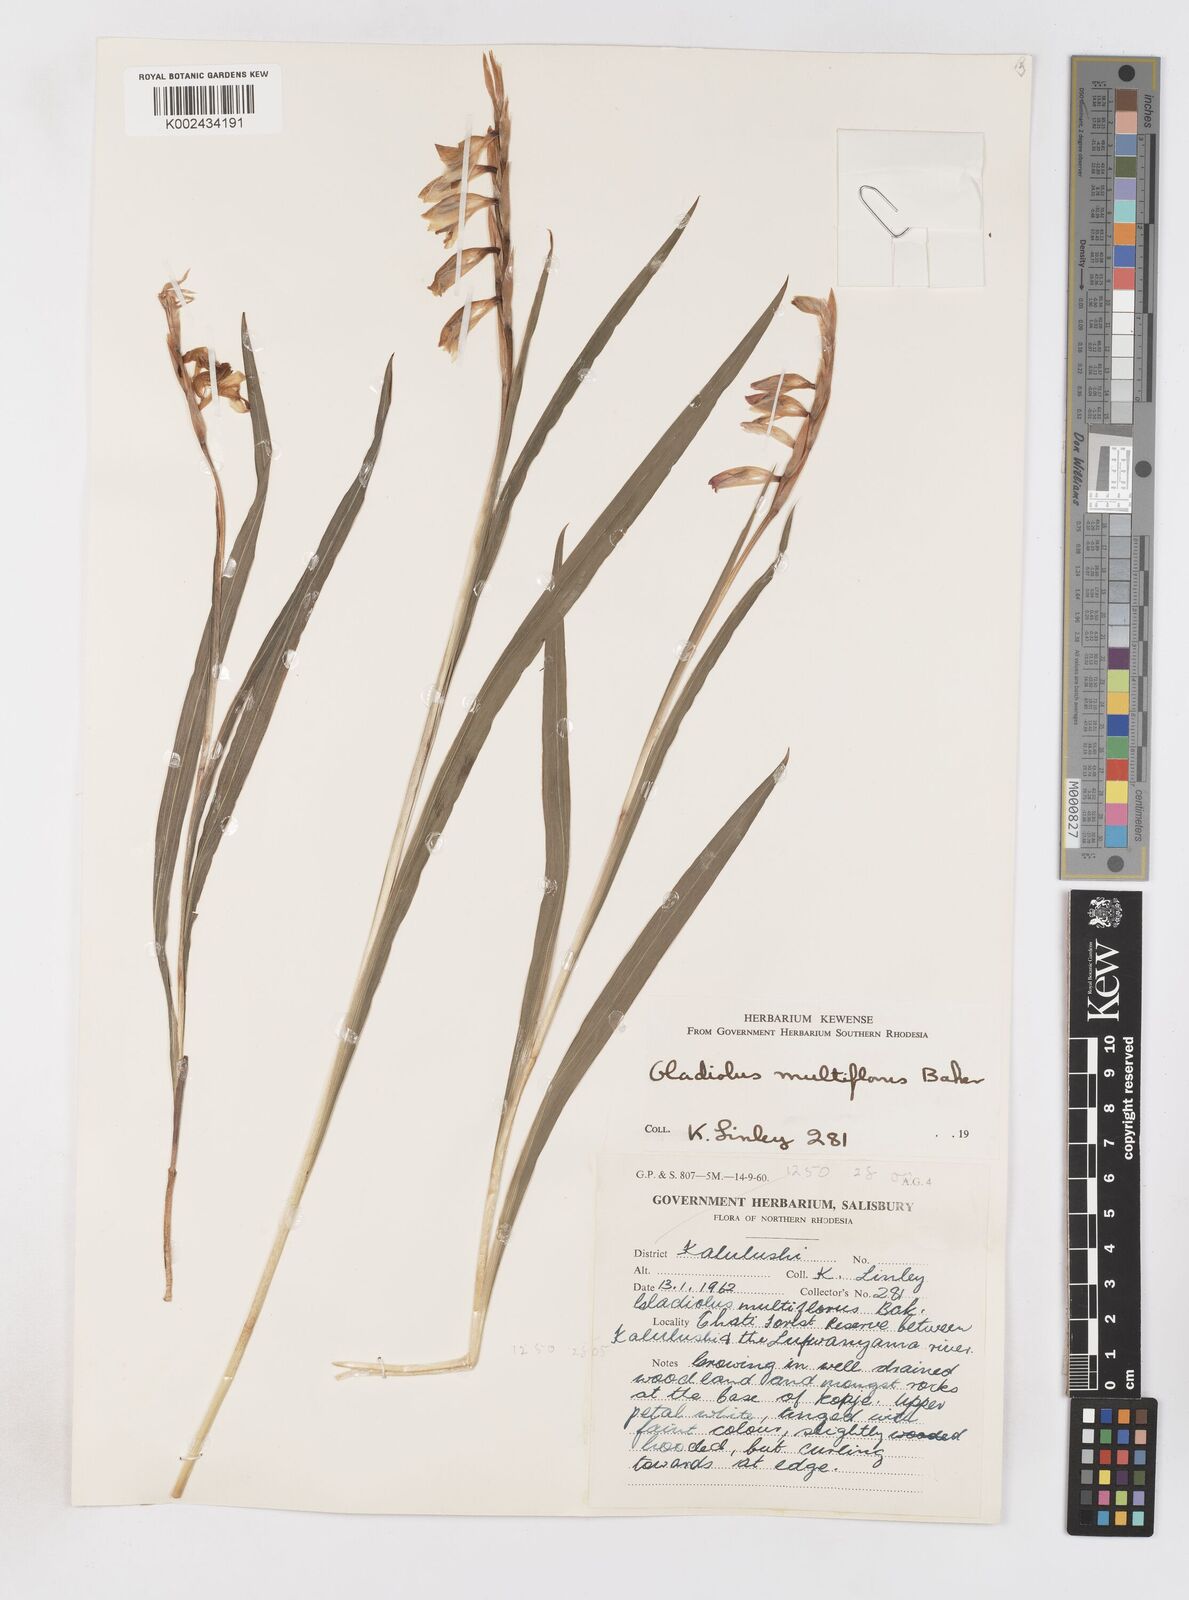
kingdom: Plantae
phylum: Tracheophyta
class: Liliopsida
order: Asparagales
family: Iridaceae
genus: Gladiolus
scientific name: Gladiolus gregarius
